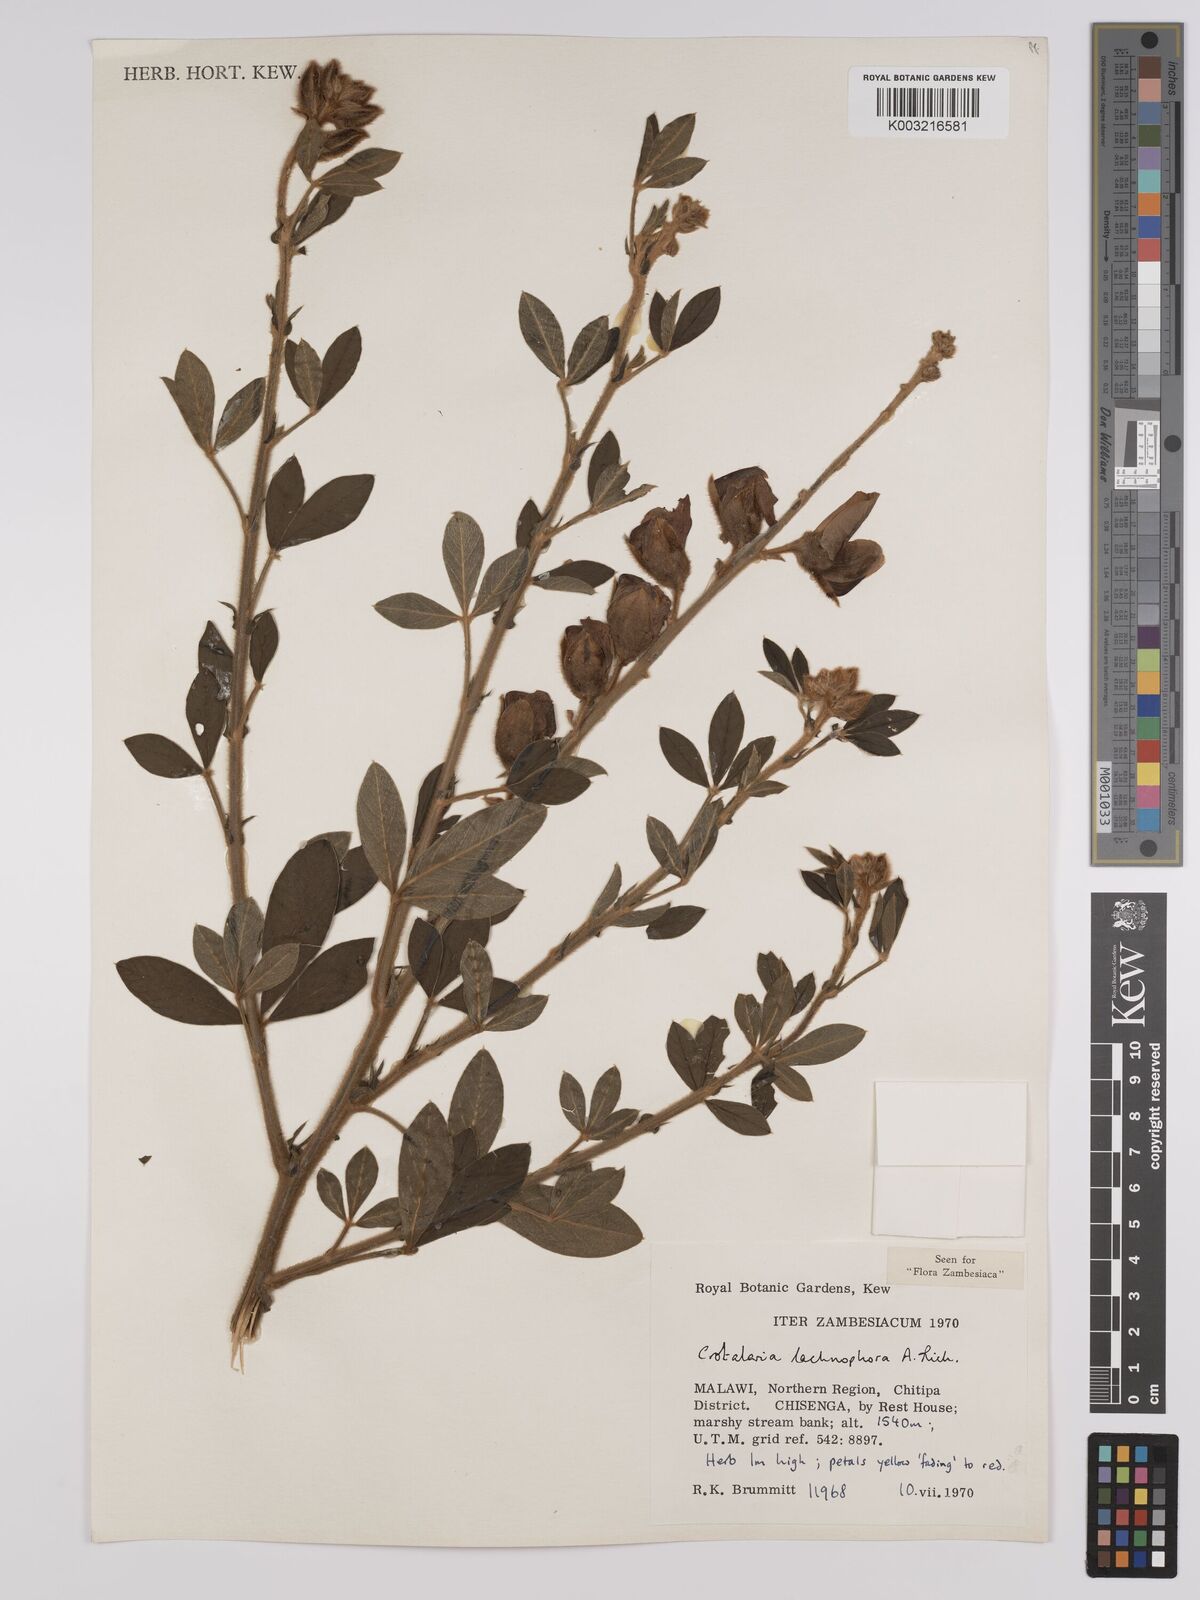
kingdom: Plantae
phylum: Tracheophyta
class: Magnoliopsida
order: Fabales
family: Fabaceae
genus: Crotalaria
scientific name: Crotalaria lachnophora
